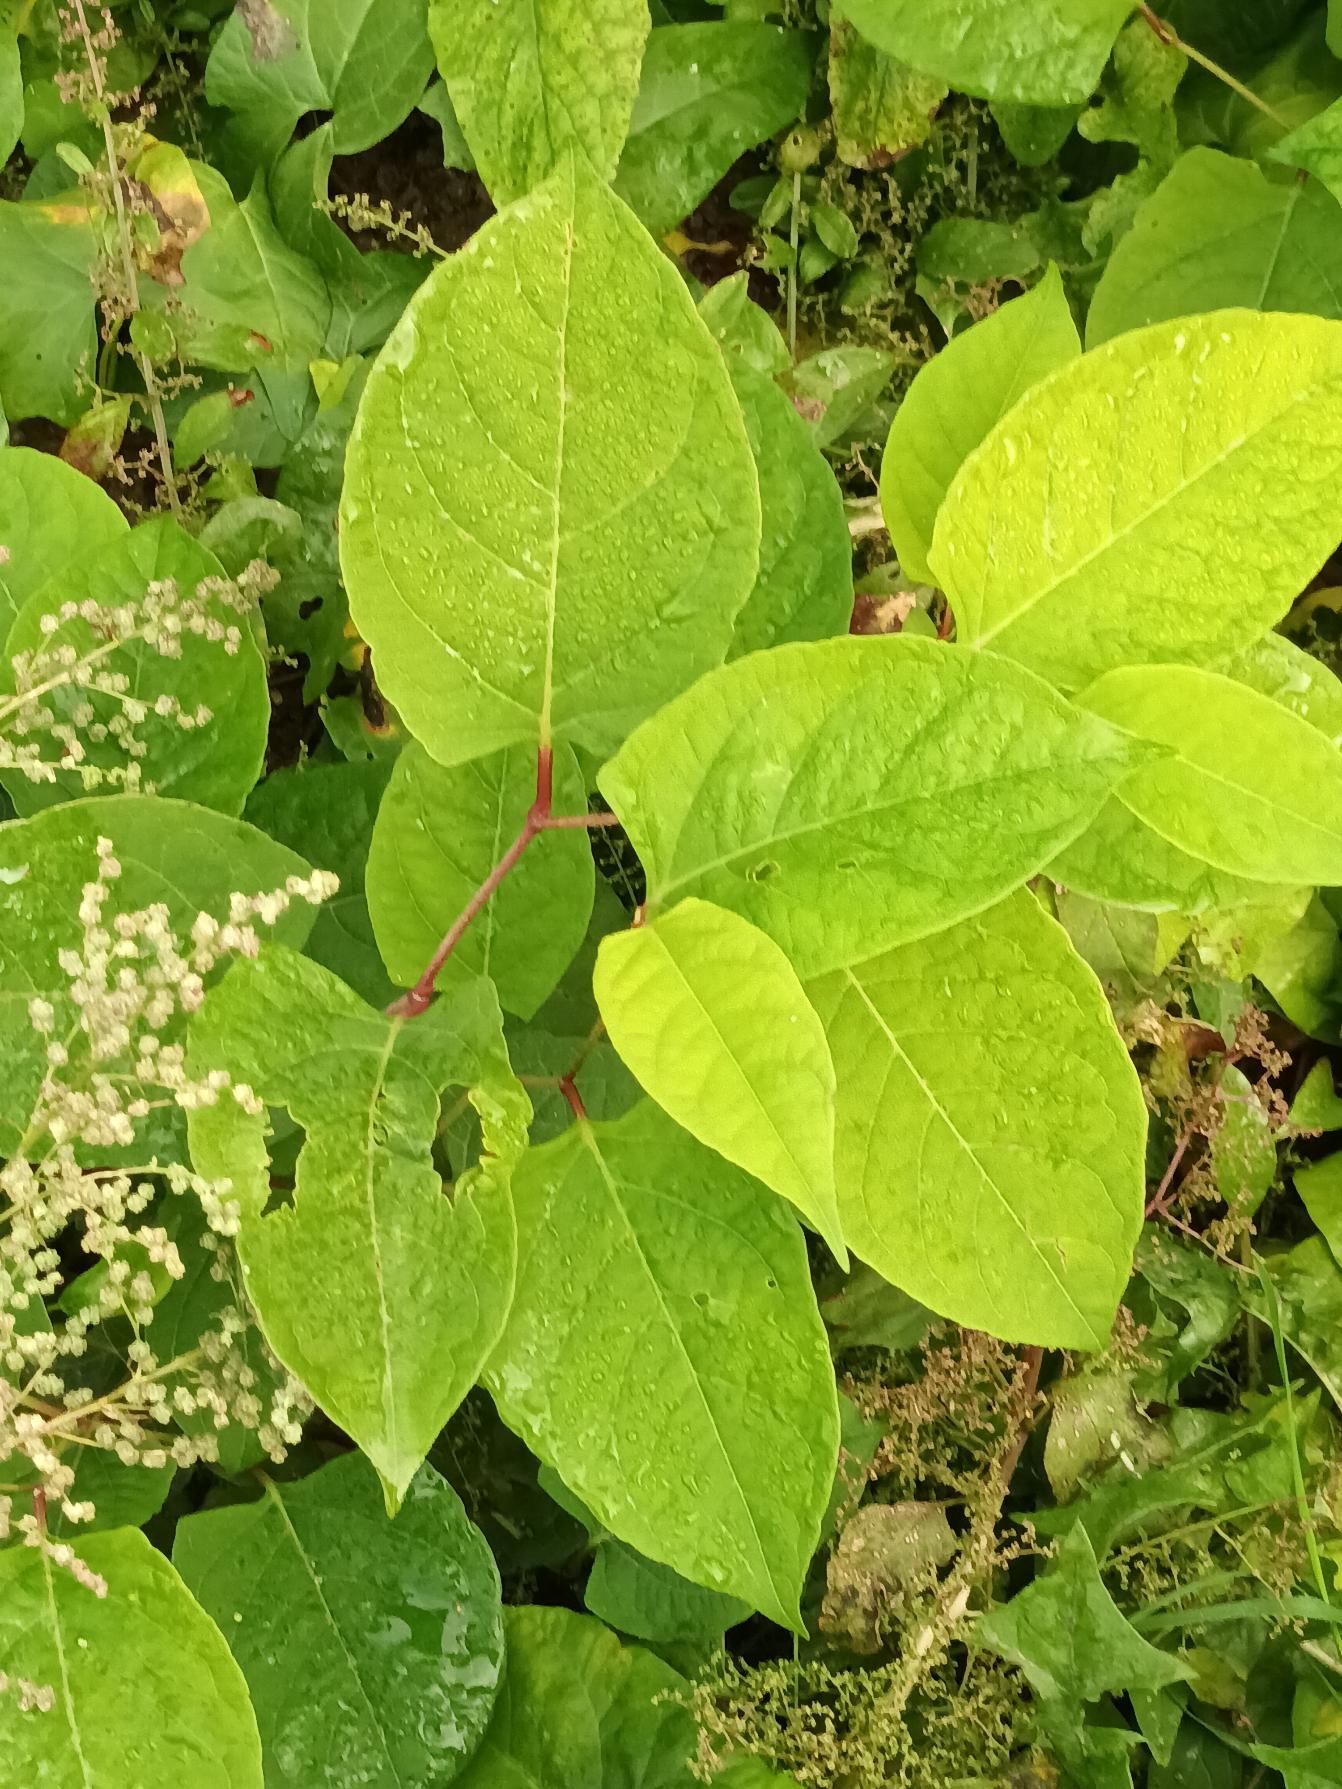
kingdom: Plantae
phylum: Tracheophyta
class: Magnoliopsida
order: Caryophyllales
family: Polygonaceae
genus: Reynoutria
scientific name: Reynoutria japonica
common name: Japan-pileurt
